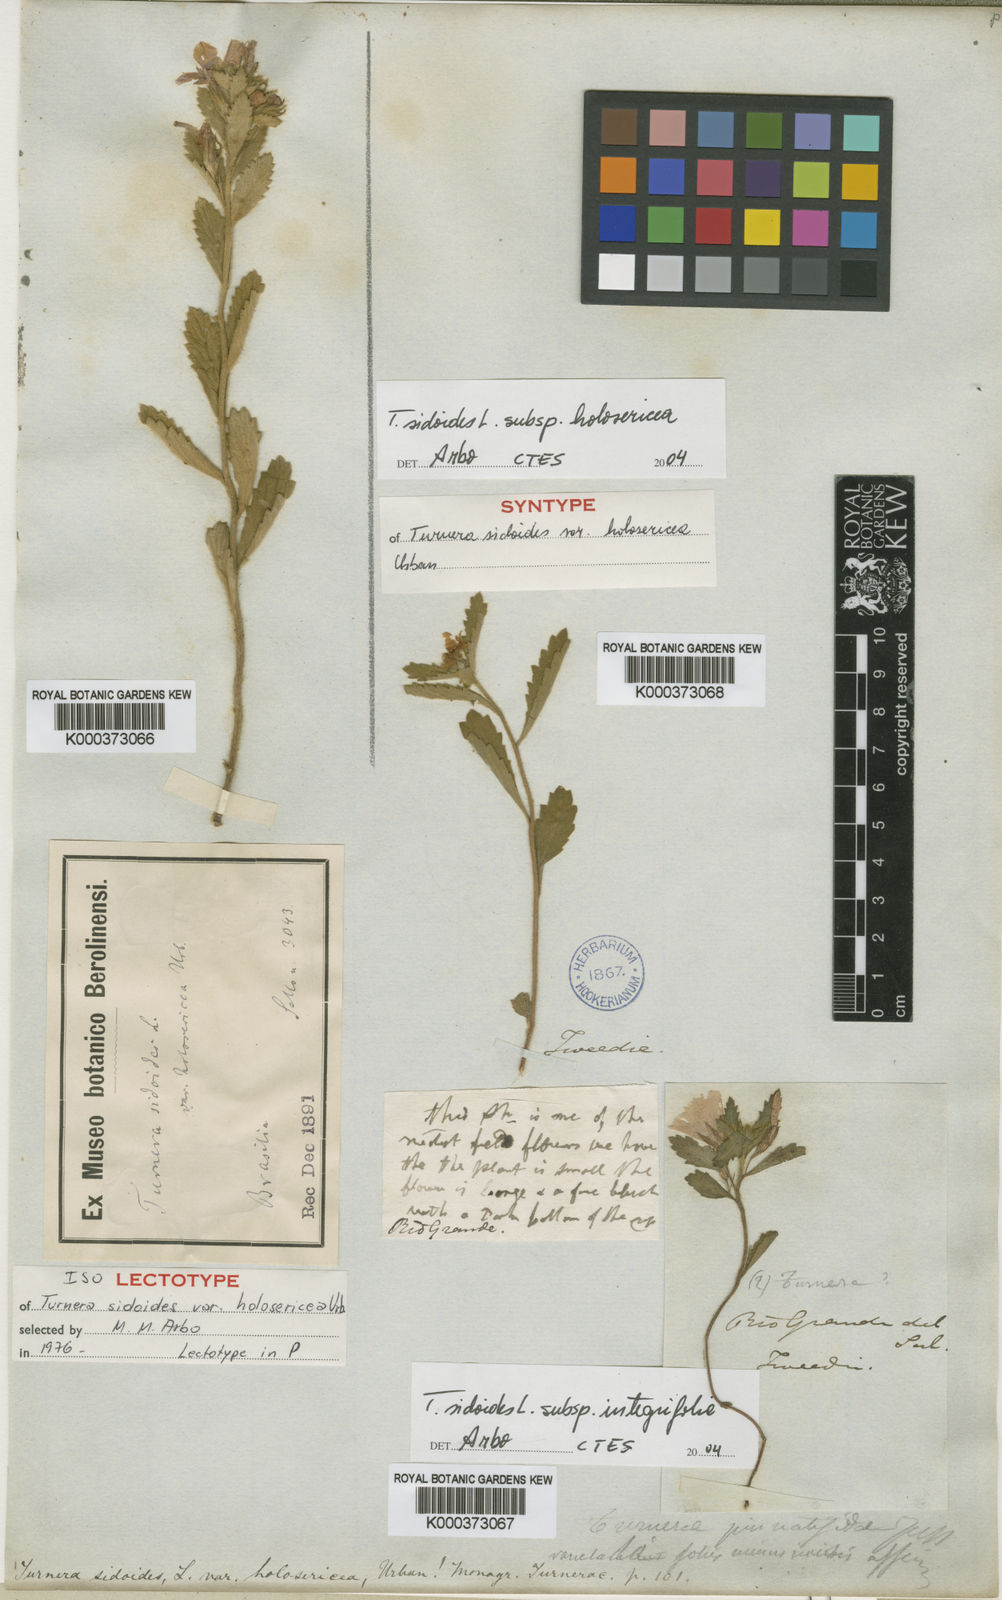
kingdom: Plantae
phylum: Tracheophyta
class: Magnoliopsida
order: Malpighiales
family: Turneraceae
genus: Turnera
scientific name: Turnera sidoides
